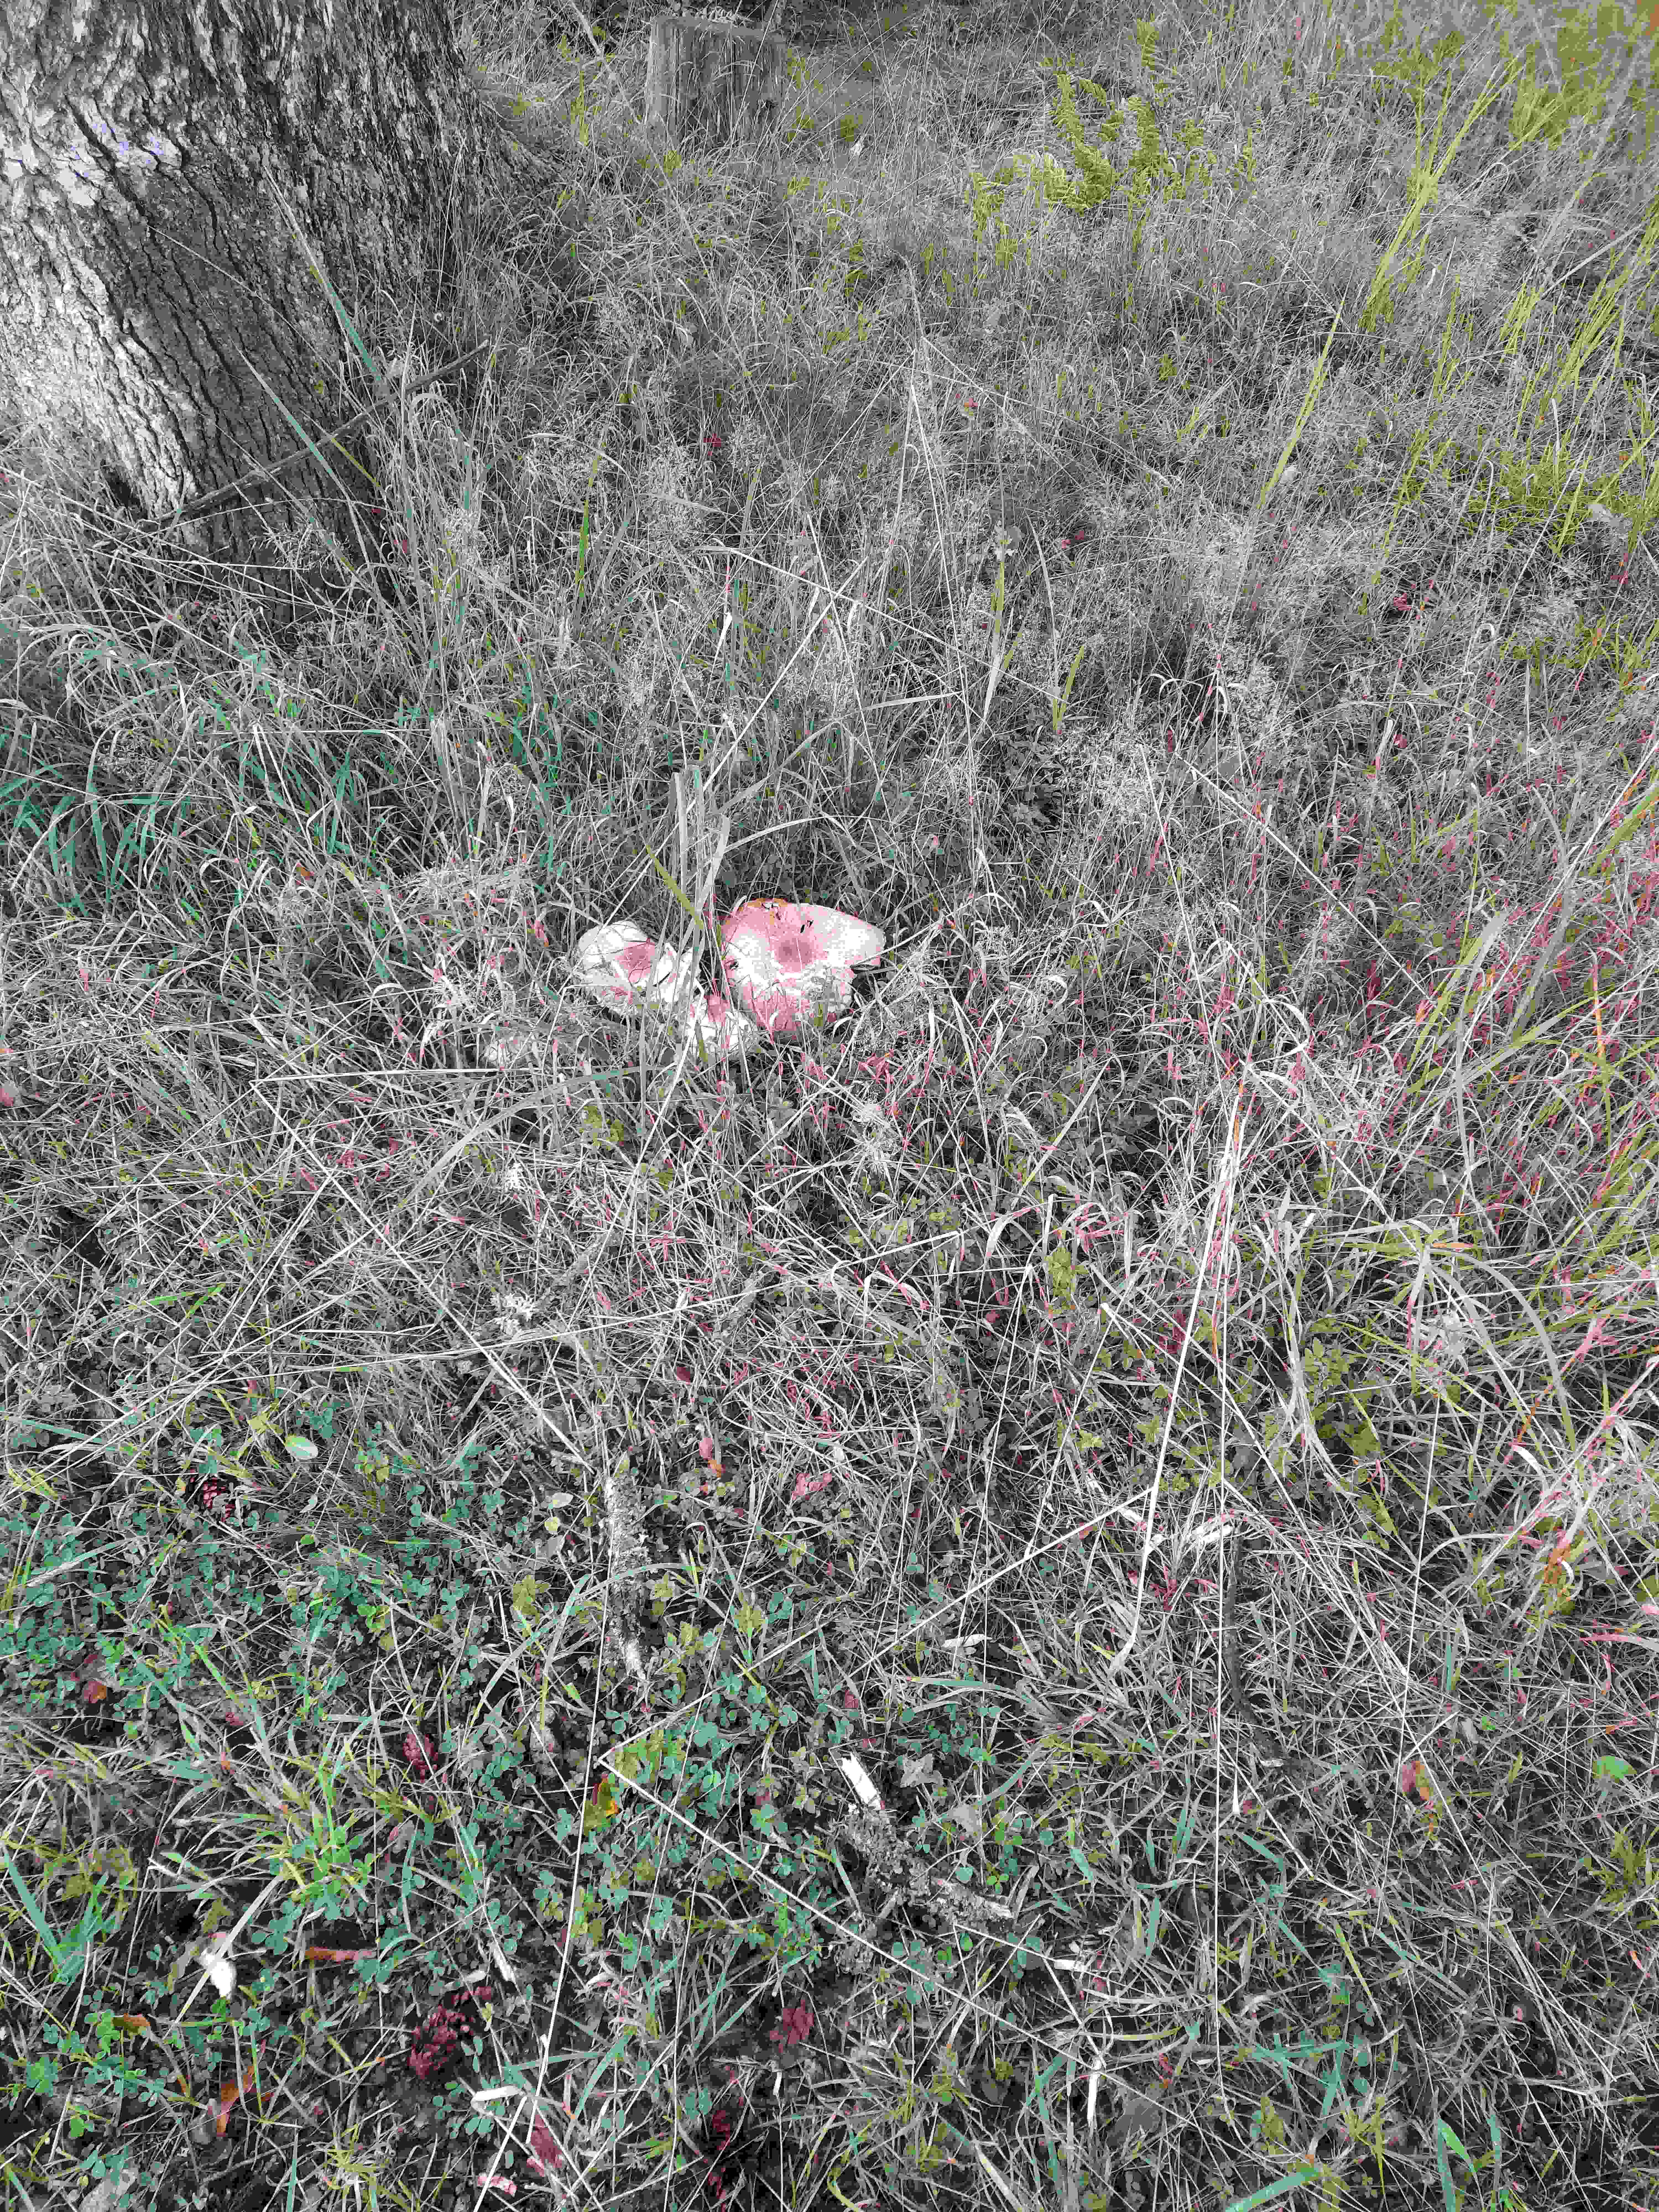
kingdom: Fungi
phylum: Basidiomycota
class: Agaricomycetes
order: Agaricales
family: Agaricaceae
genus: Agaricus
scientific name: Agaricus augustus
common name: prægtig champignon
